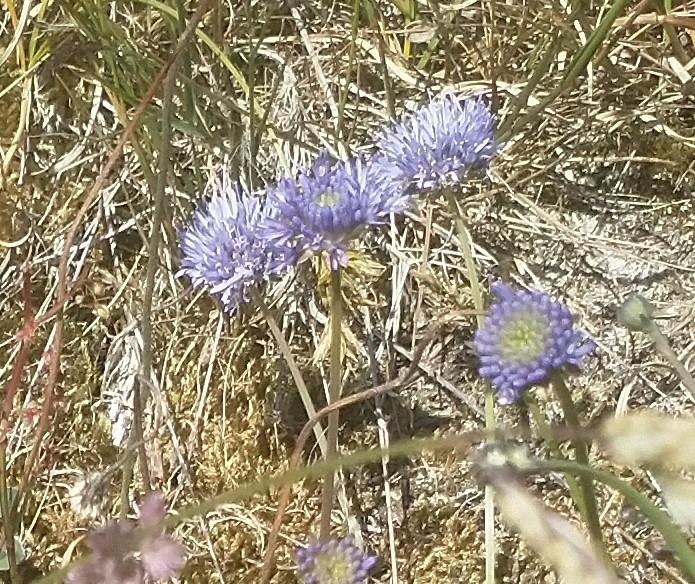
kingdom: Plantae
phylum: Tracheophyta
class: Magnoliopsida
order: Asterales
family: Campanulaceae
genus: Jasione
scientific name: Jasione montana
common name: Blåmunke
